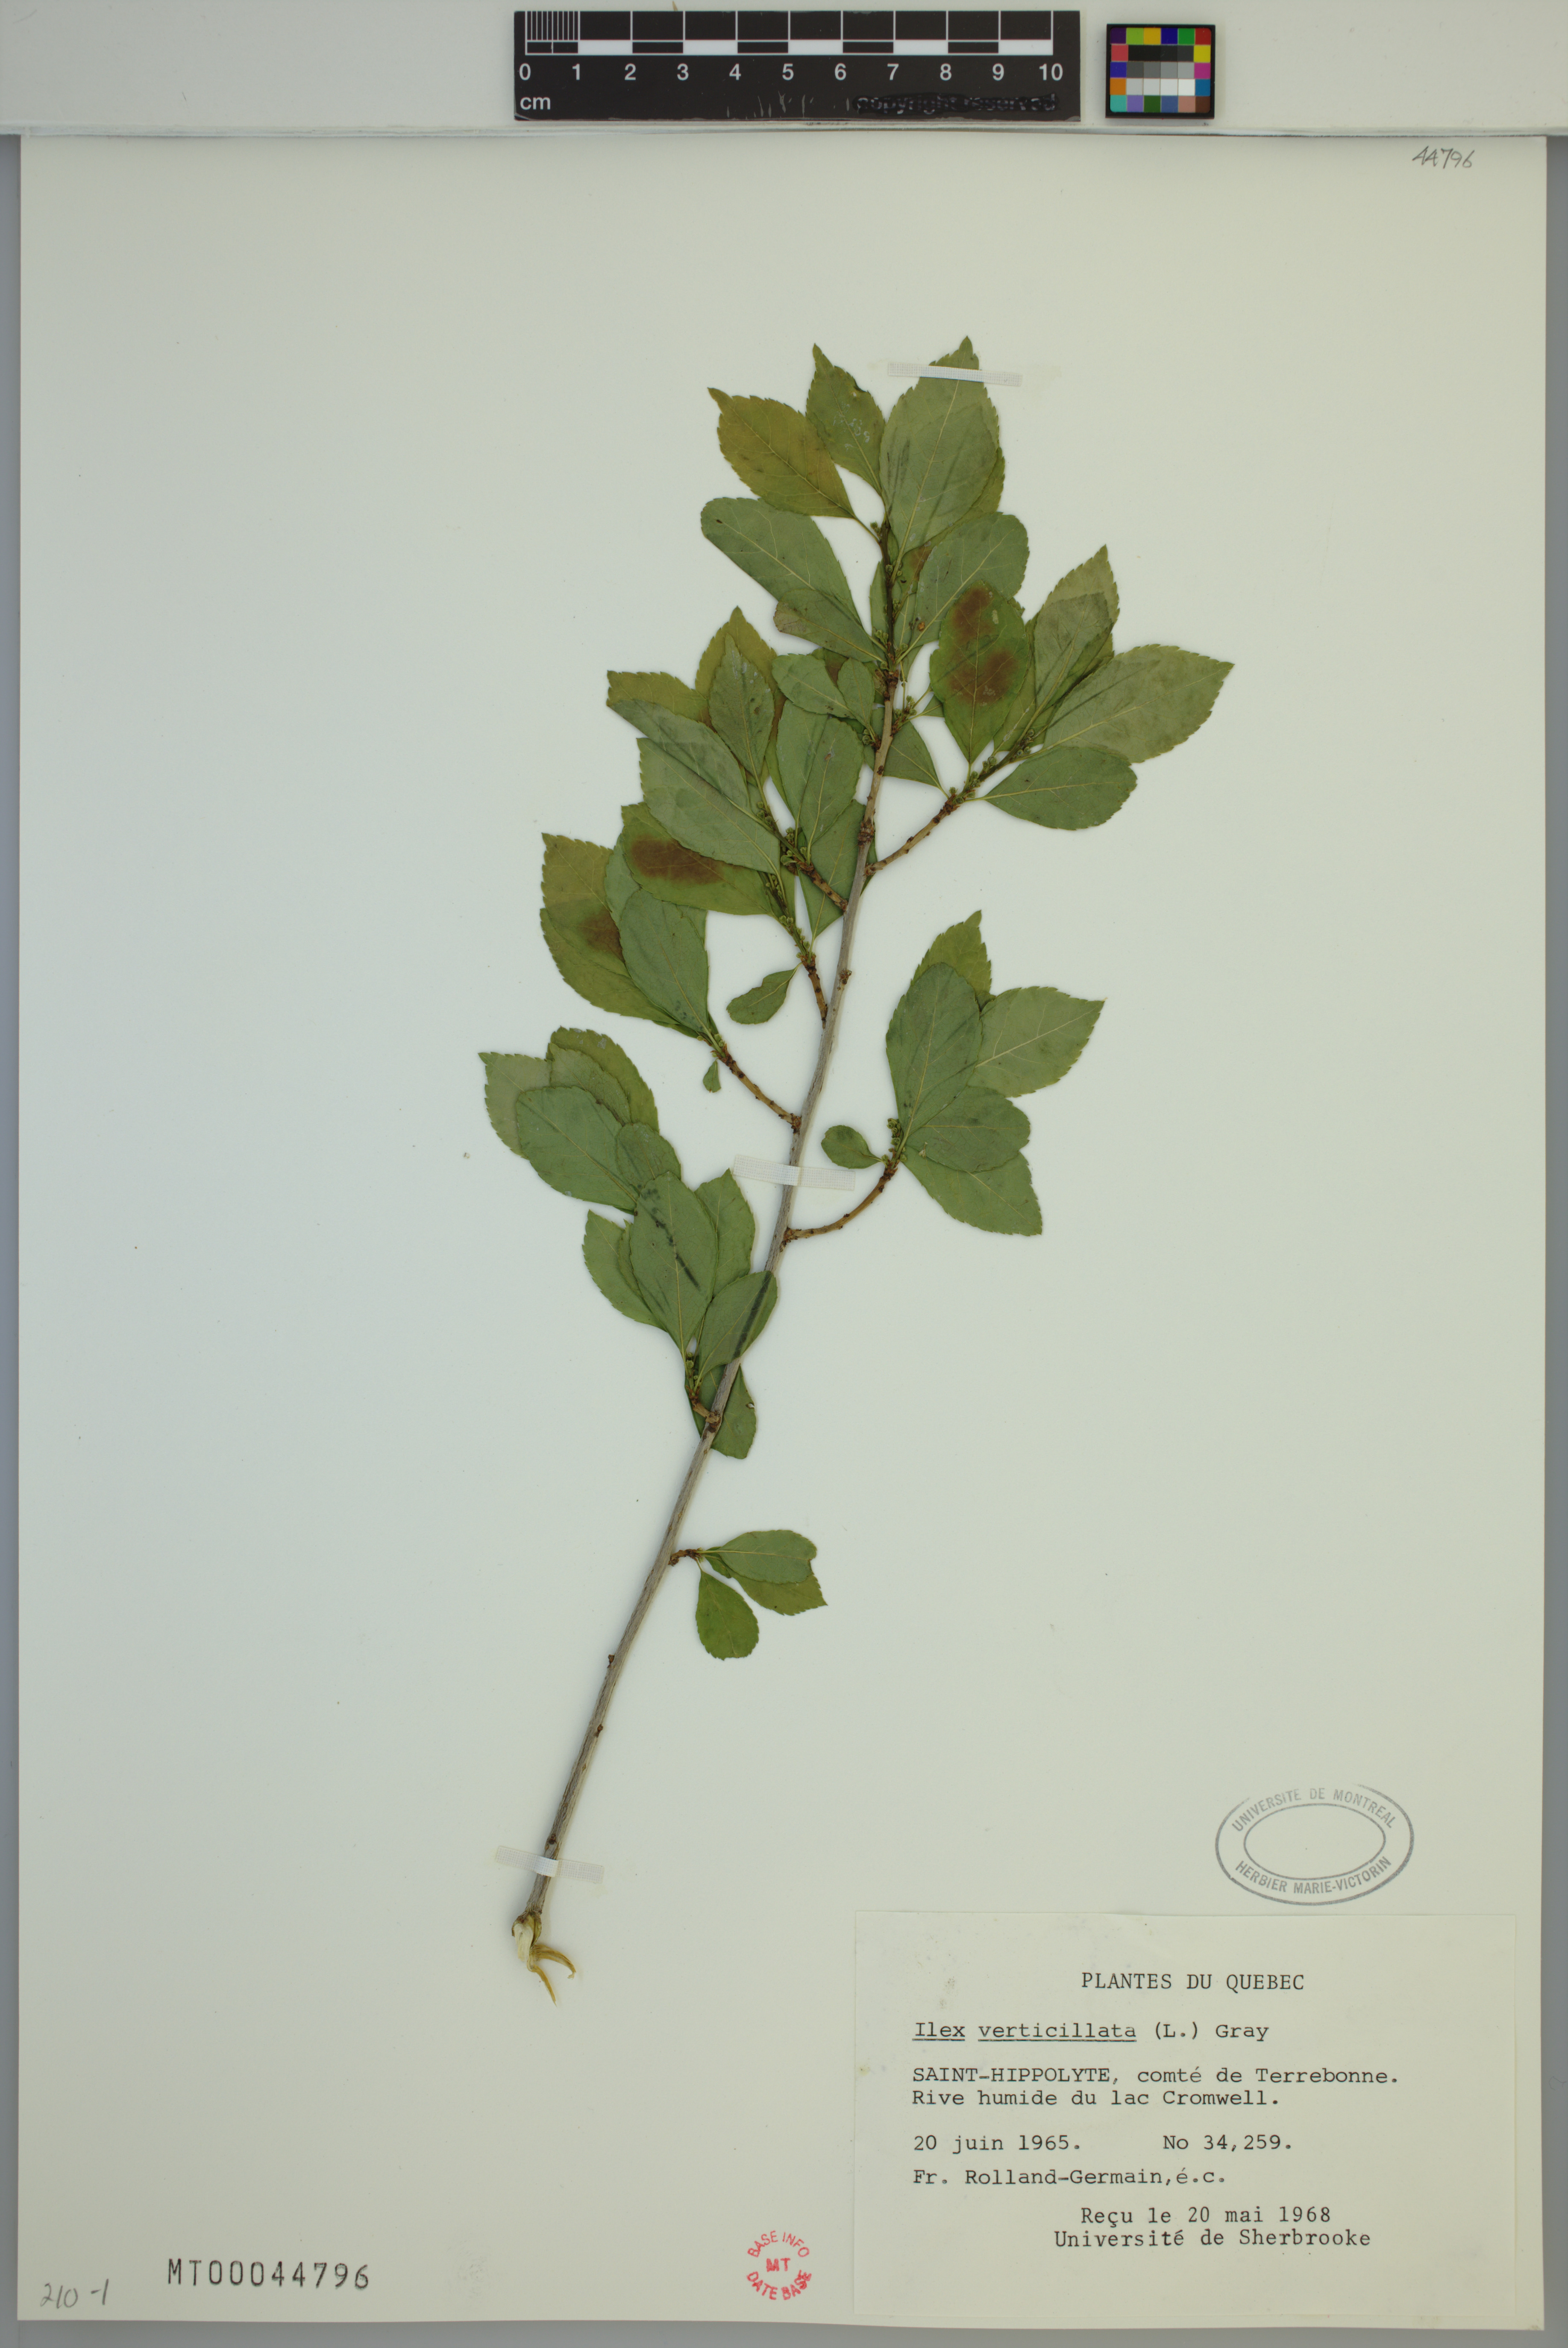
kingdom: Plantae
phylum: Tracheophyta
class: Magnoliopsida
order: Aquifoliales
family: Aquifoliaceae
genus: Ilex
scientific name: Ilex verticillata
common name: Virginia winterberry
